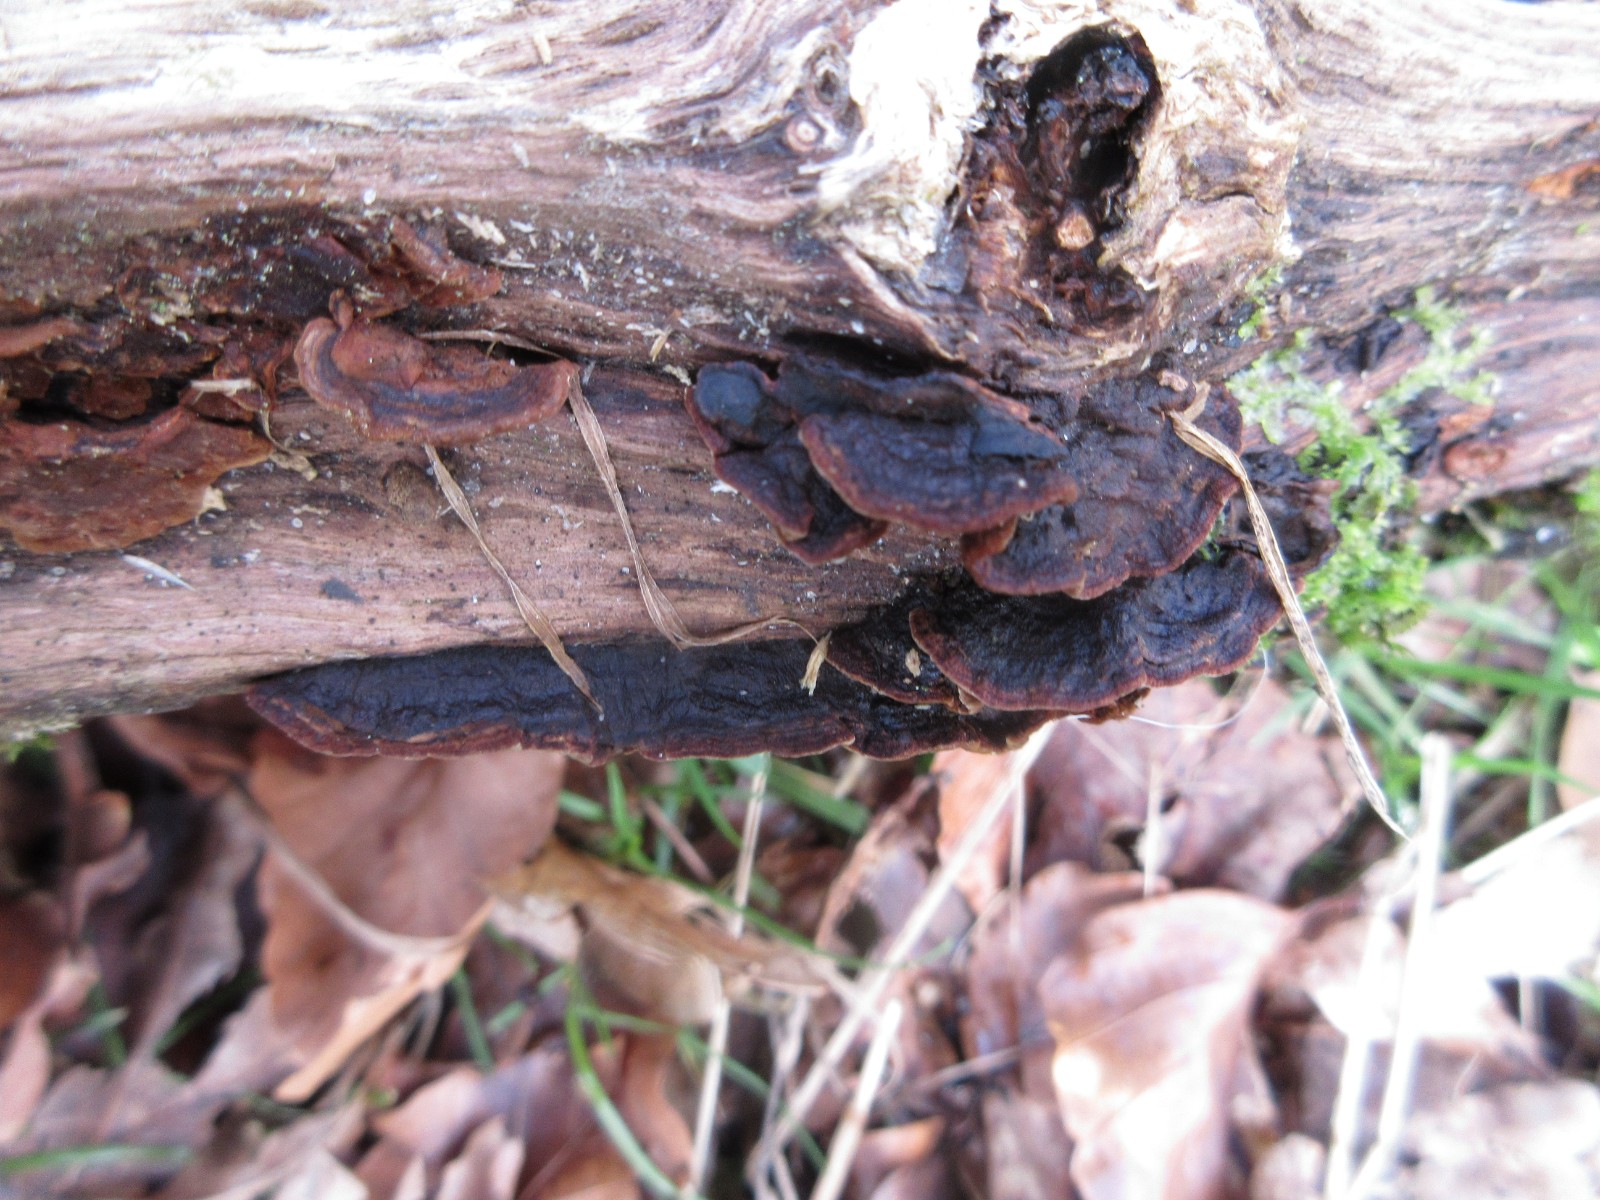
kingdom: Fungi
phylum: Basidiomycota
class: Agaricomycetes
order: Hymenochaetales
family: Hymenochaetaceae
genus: Hymenochaete
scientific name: Hymenochaete rubiginosa
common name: stiv ruslædersvamp
